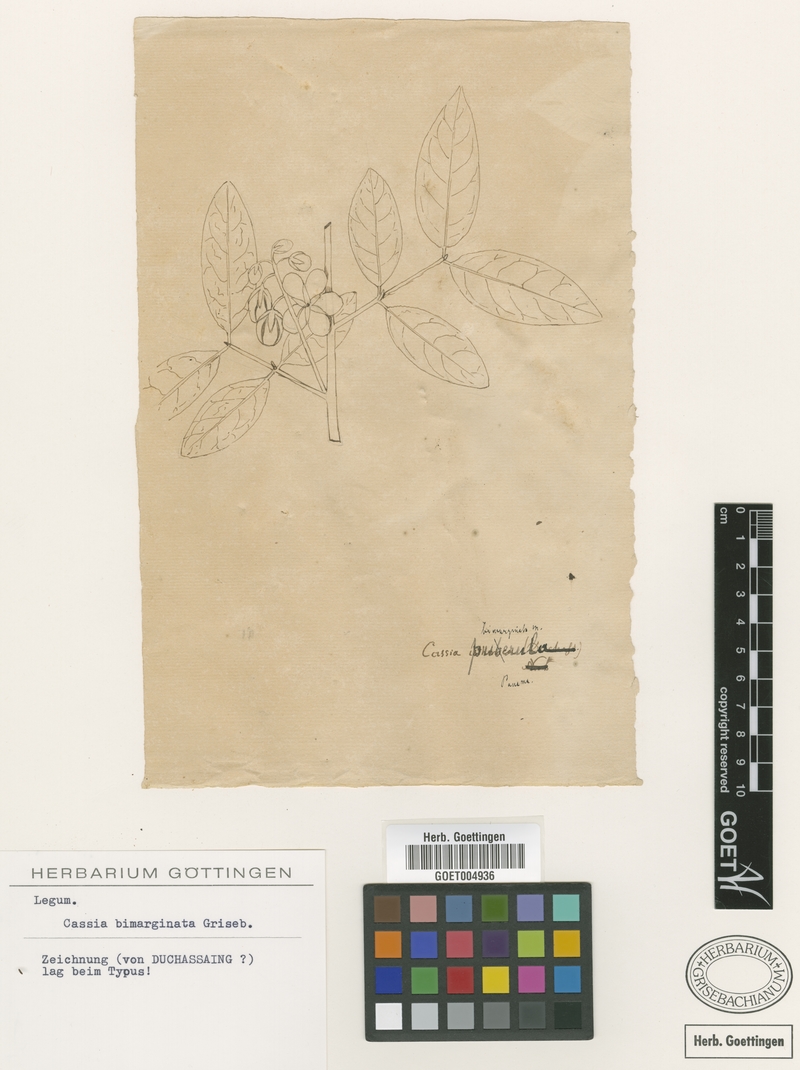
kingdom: Plantae
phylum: Tracheophyta
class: Magnoliopsida
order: Fabales
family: Fabaceae
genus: Senna
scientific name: Senna undulata
